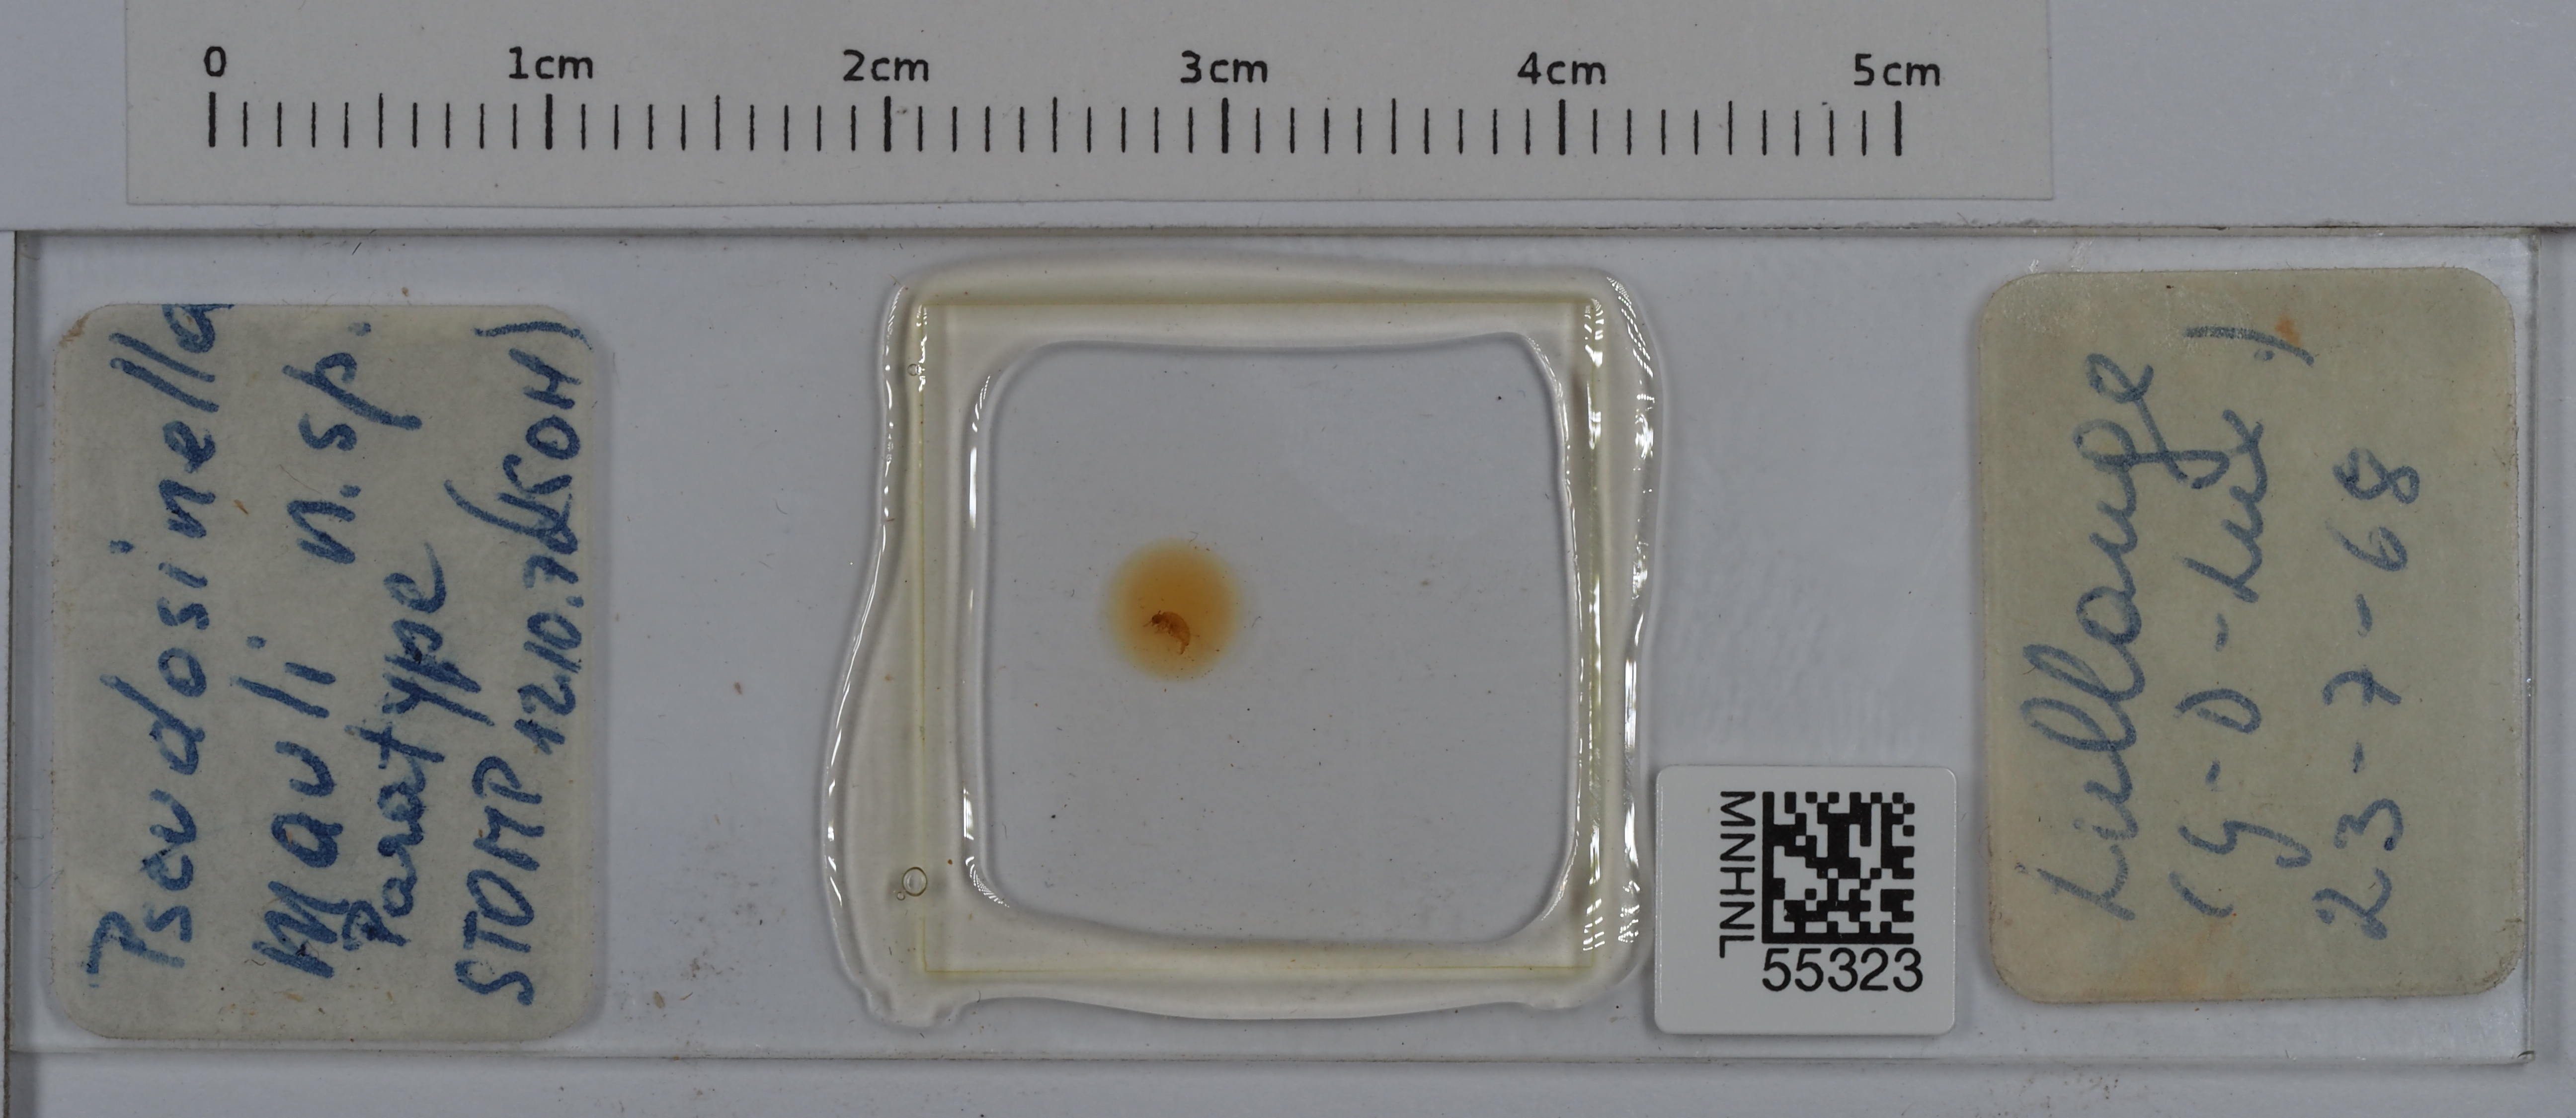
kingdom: Animalia
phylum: Arthropoda
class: Collembola
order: Entomobryomorpha
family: Entomobryidae
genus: Pseudosinella
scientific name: Pseudosinella mauli
